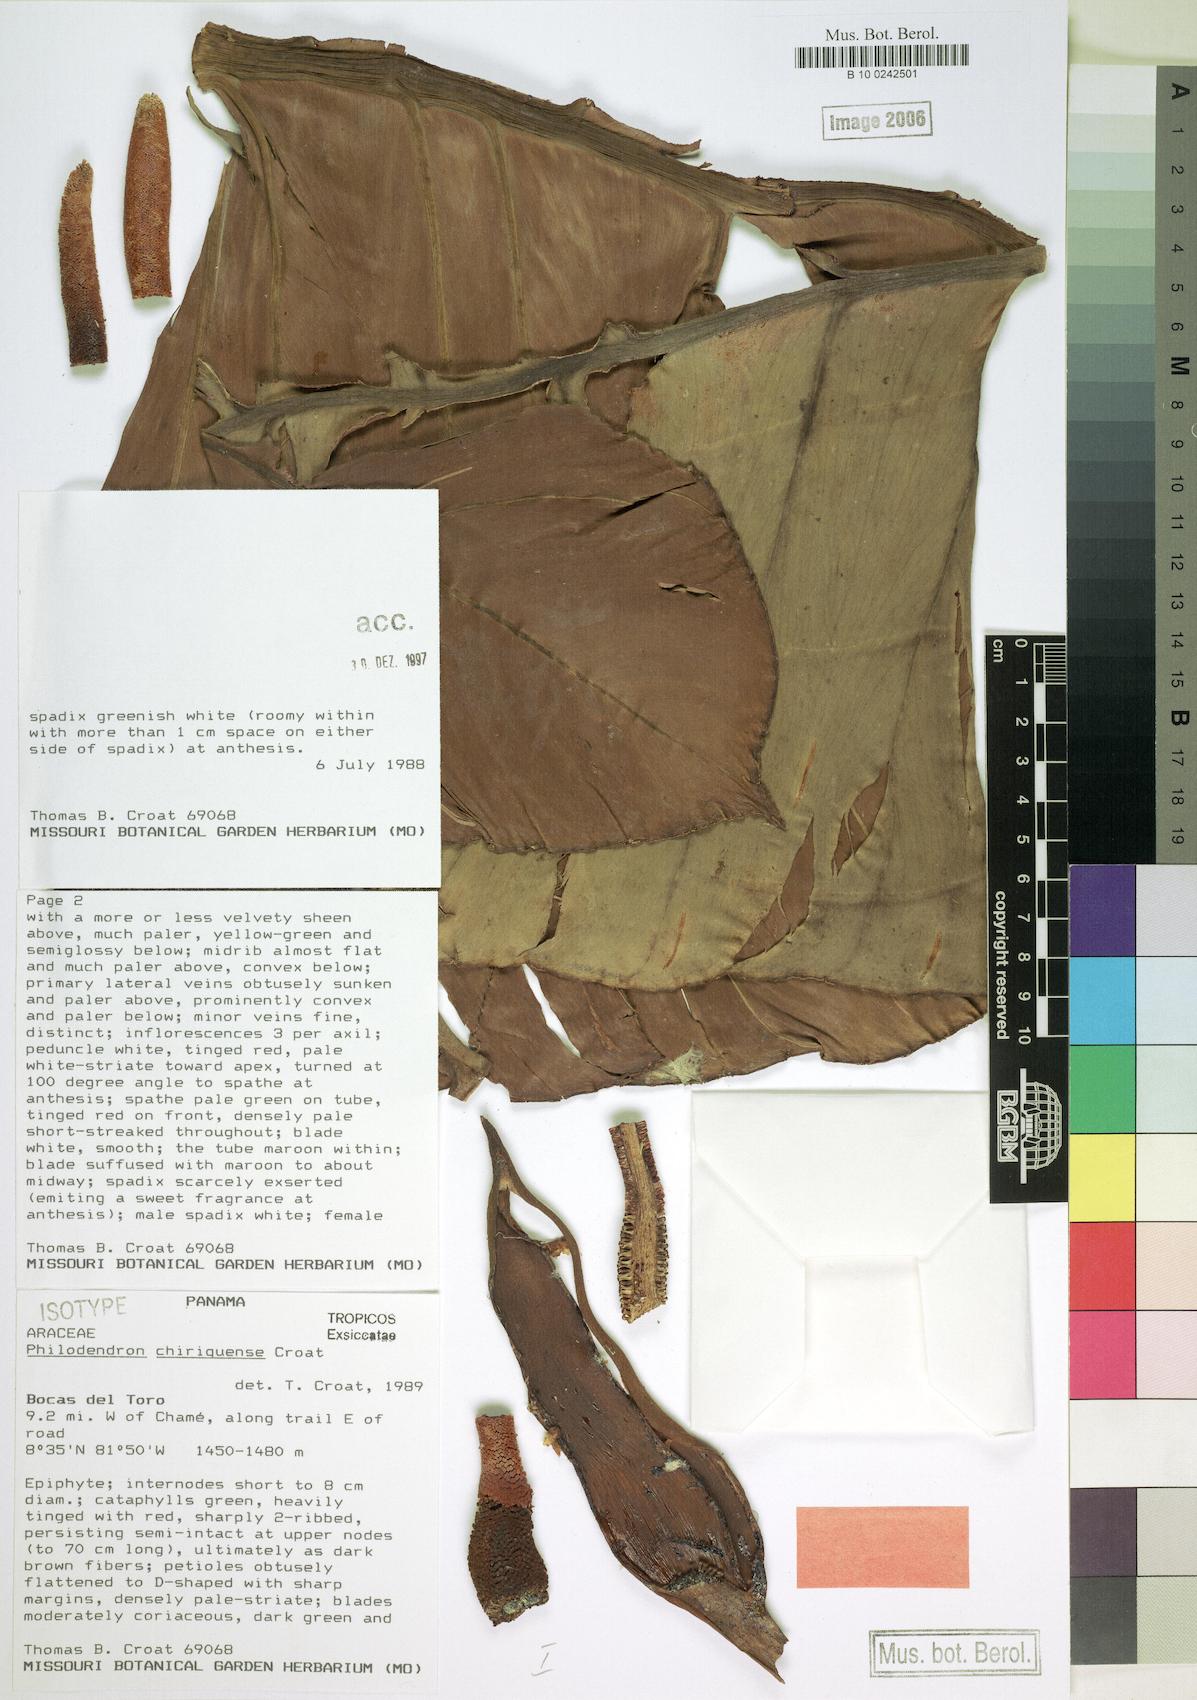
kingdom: Plantae
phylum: Tracheophyta
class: Liliopsida
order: Alismatales
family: Araceae
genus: Philodendron
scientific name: Philodendron chiriquense
